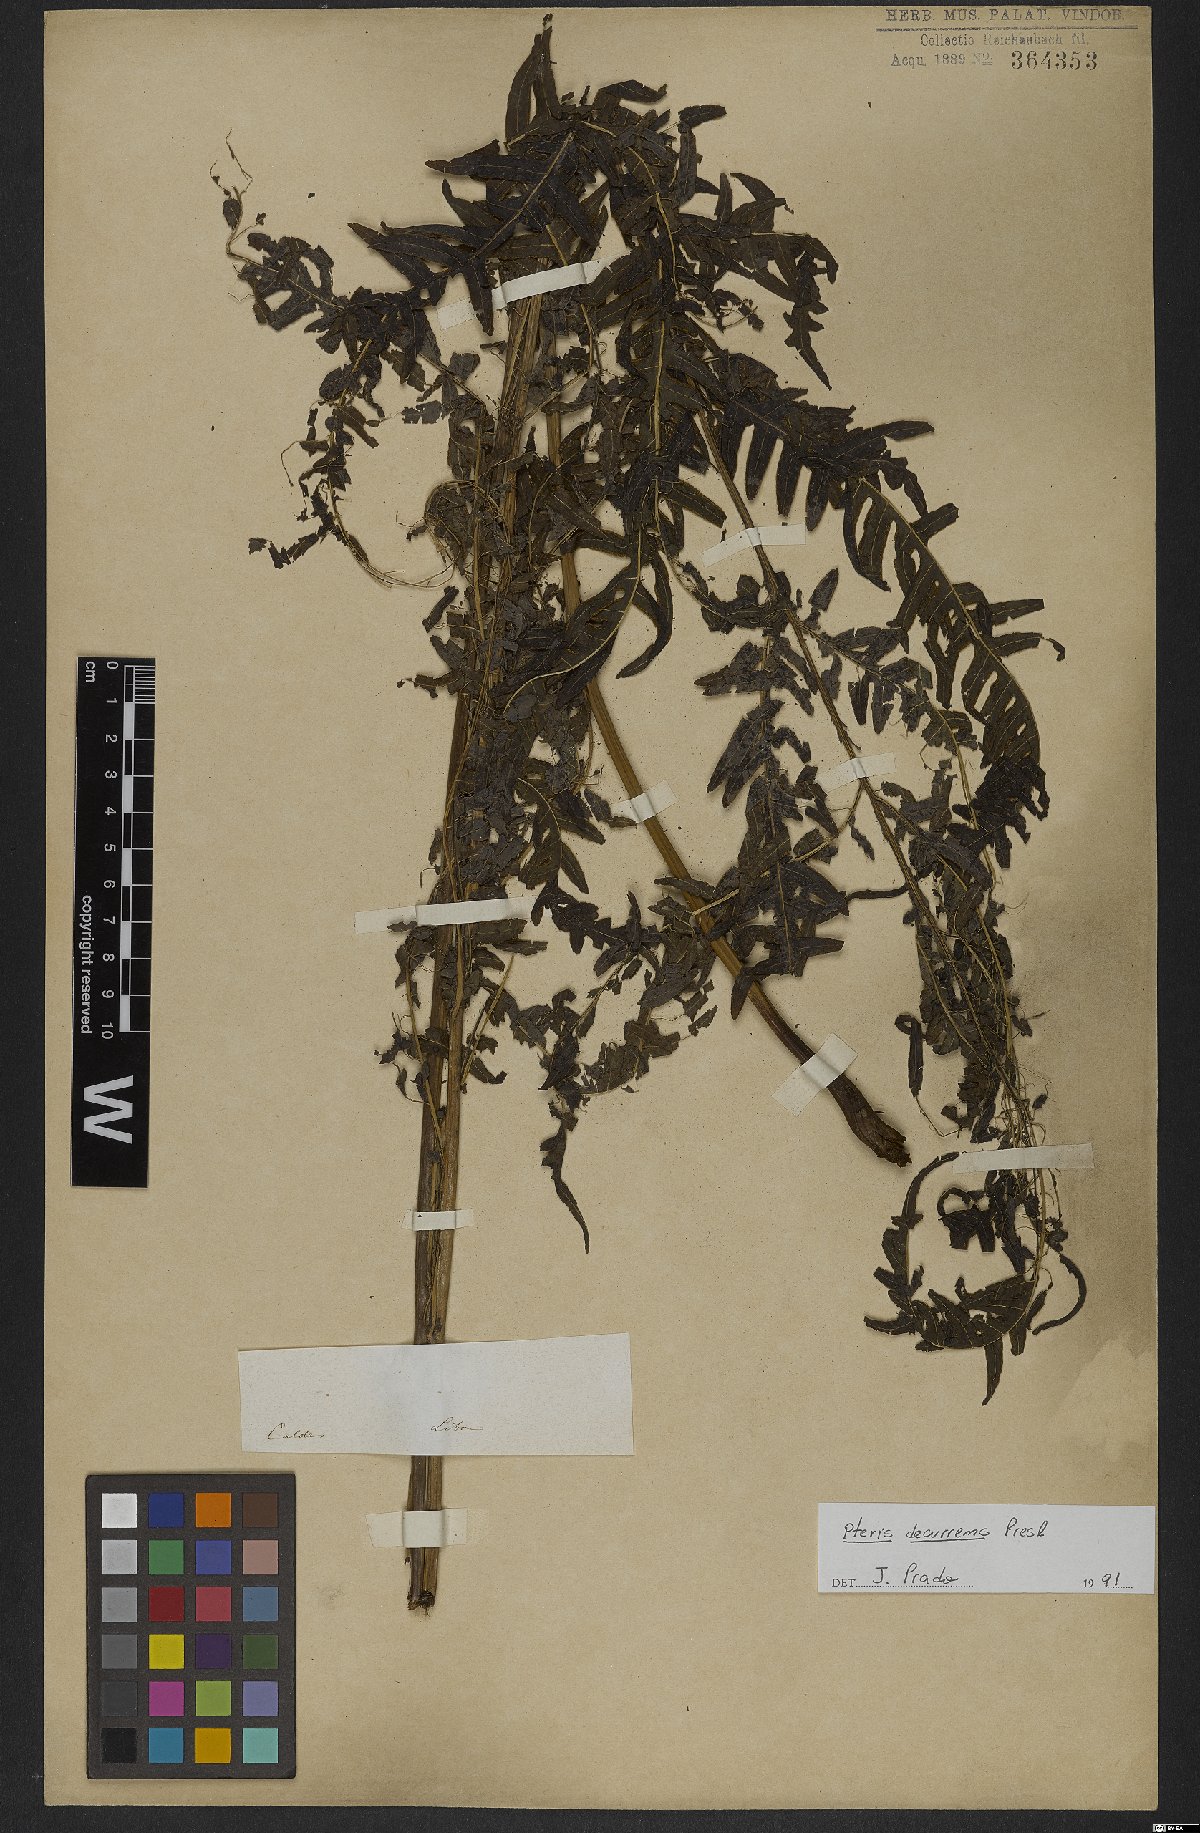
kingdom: Plantae
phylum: Tracheophyta
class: Polypodiopsida
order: Polypodiales
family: Pteridaceae
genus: Pteris
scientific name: Pteris decurrens
